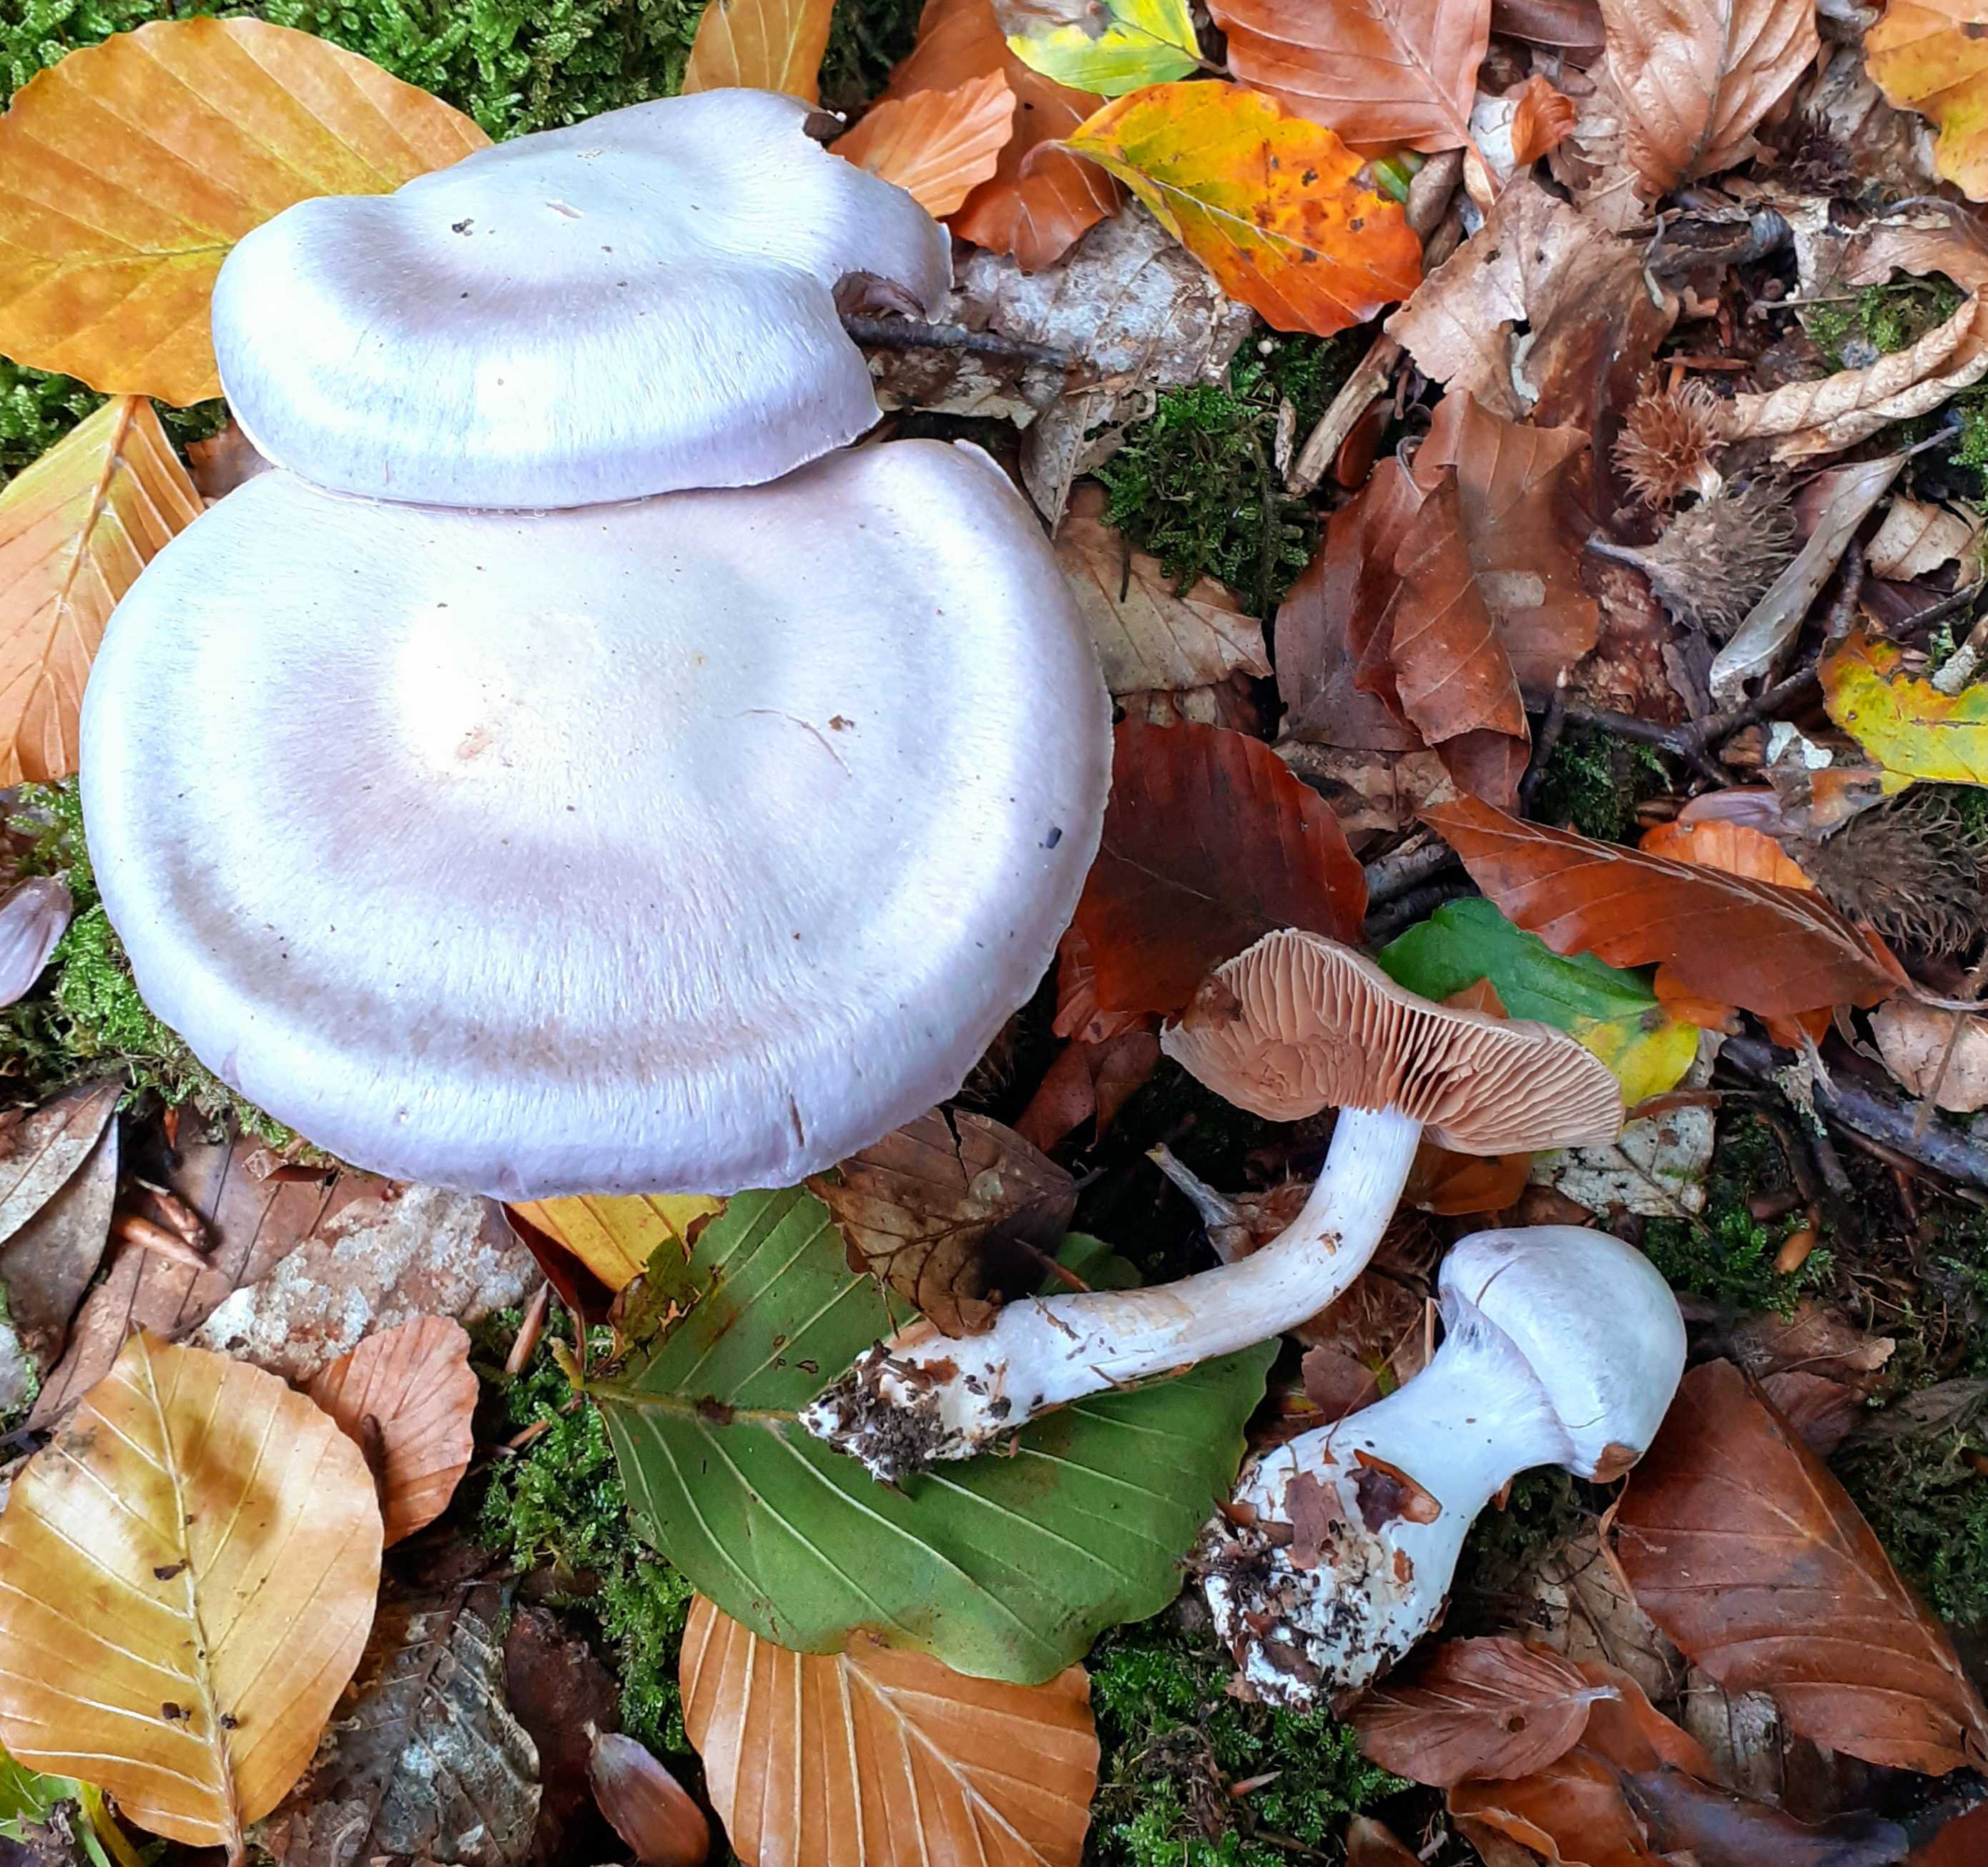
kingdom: Fungi
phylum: Basidiomycota
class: Agaricomycetes
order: Agaricales
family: Cortinariaceae
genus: Cortinarius
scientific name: Cortinarius alboviolaceus
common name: lysviolet slørhat
